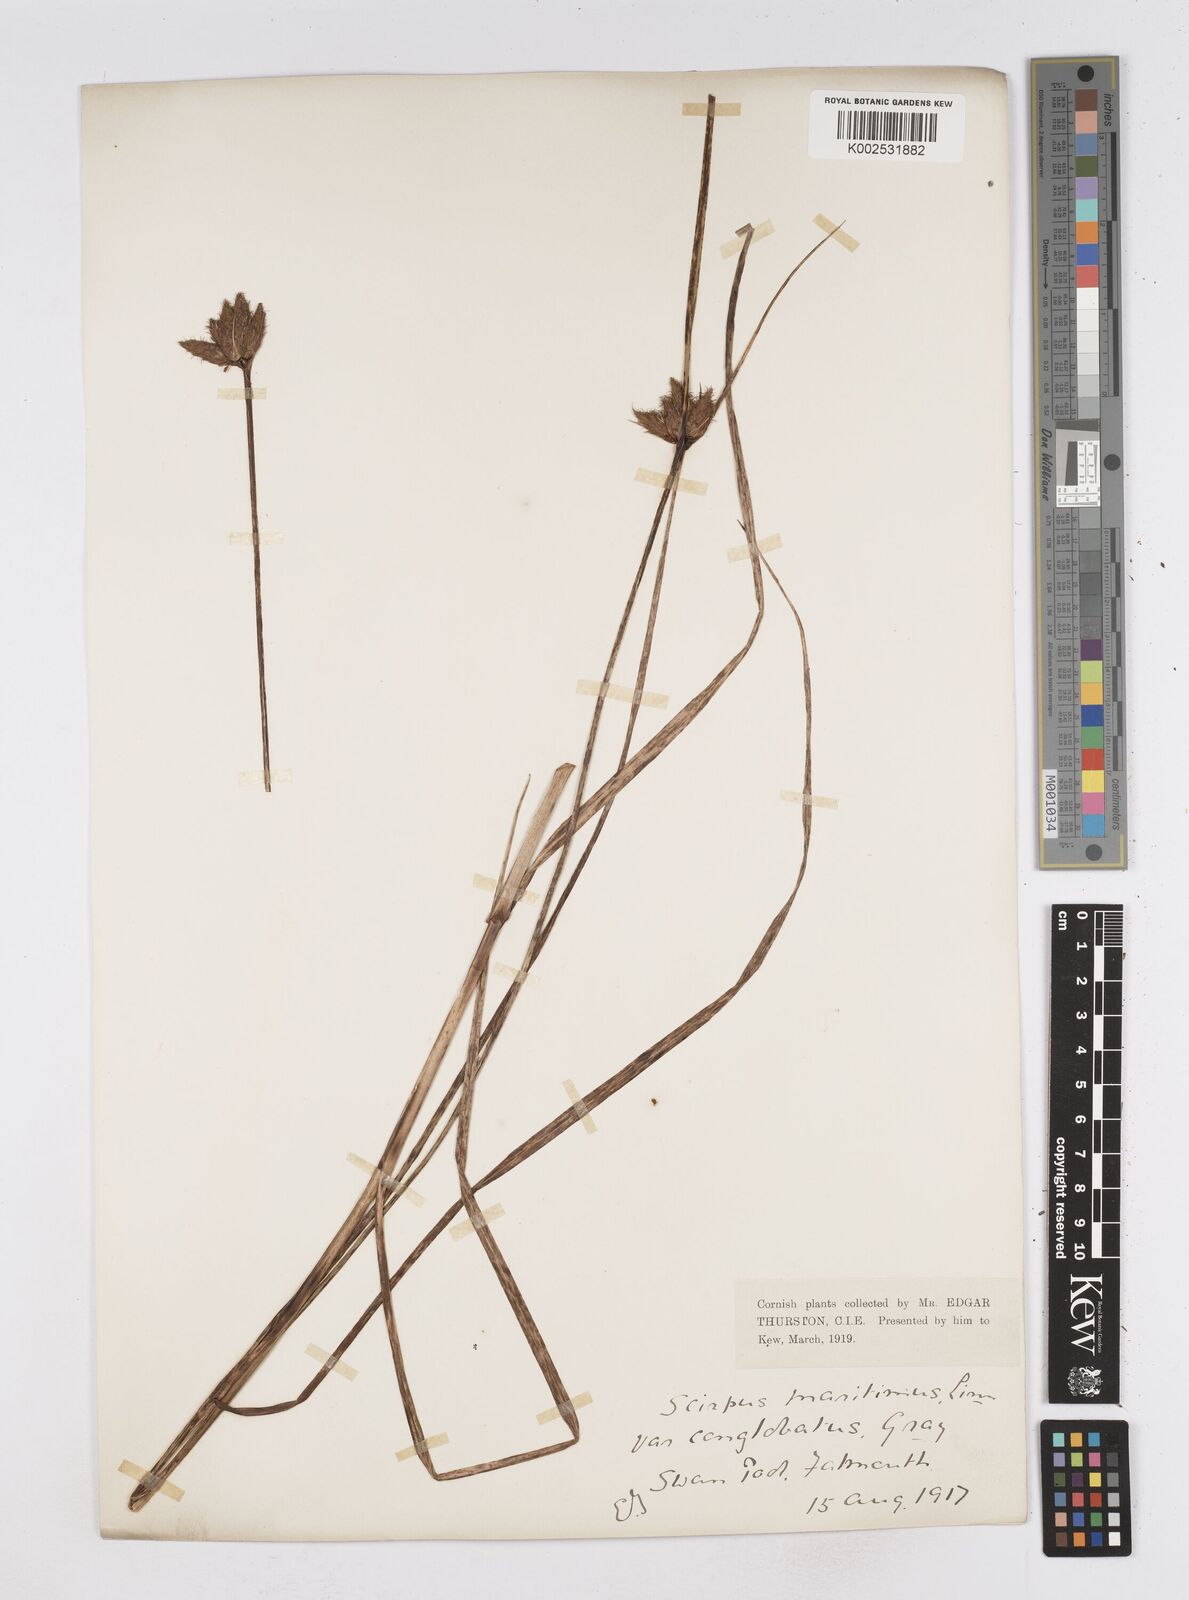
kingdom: Plantae
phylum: Tracheophyta
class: Liliopsida
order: Poales
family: Cyperaceae
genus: Bolboschoenus
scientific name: Bolboschoenus maritimus
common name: Sea club-rush
